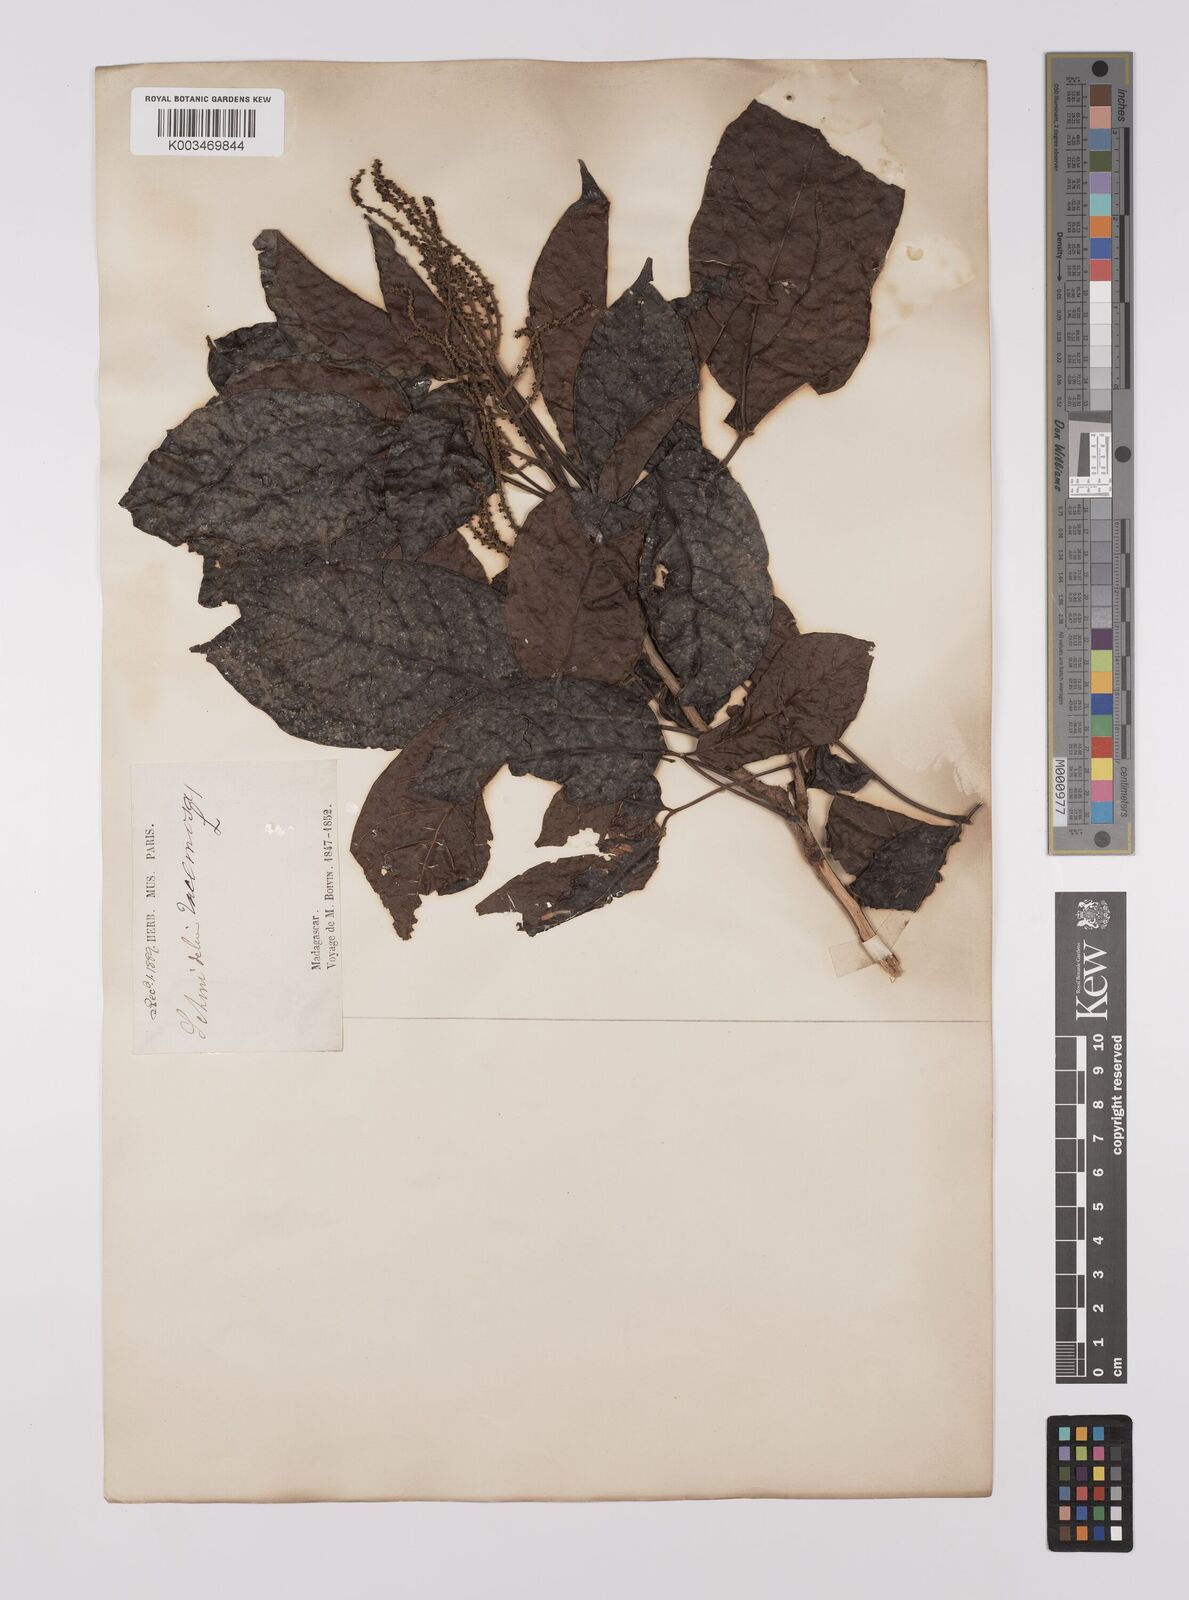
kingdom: Plantae
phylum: Tracheophyta
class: Magnoliopsida
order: Sapindales
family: Sapindaceae
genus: Allophylus
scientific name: Allophylus
